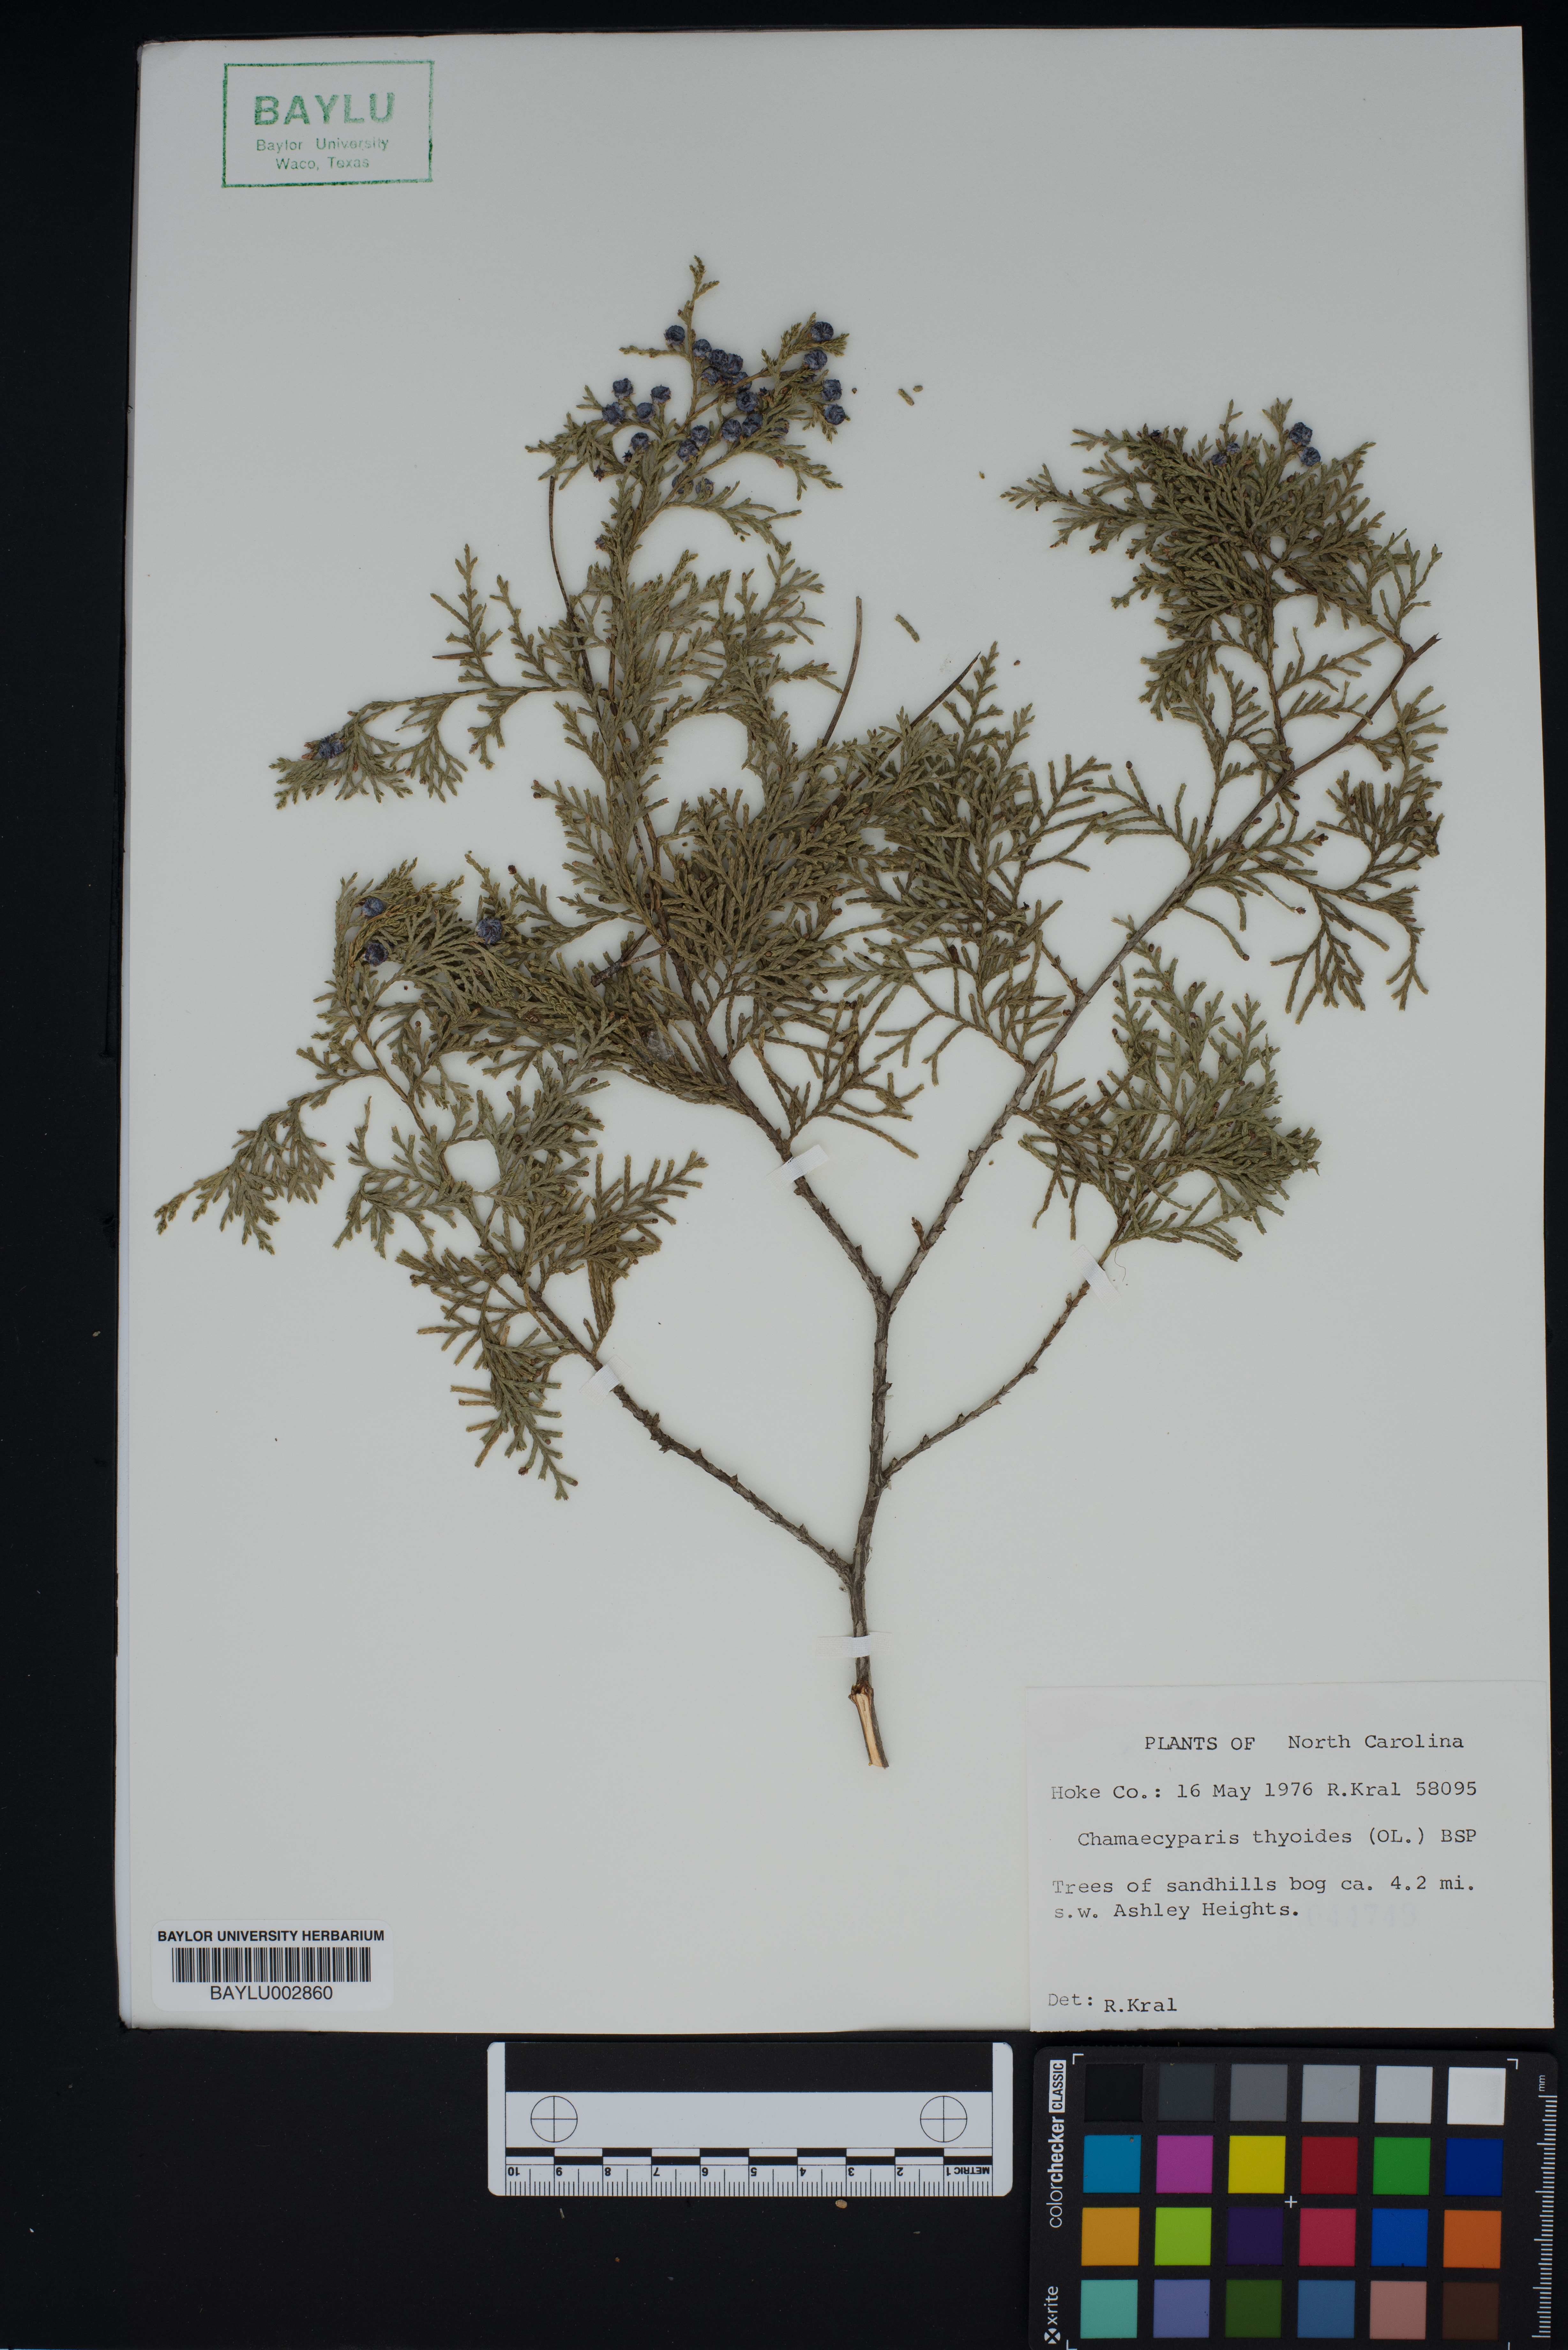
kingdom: Plantae
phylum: Tracheophyta
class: Pinopsida
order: Pinales
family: Cupressaceae
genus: Chamaecyparis
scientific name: Chamaecyparis thyoides
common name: Atlantic white cedar
